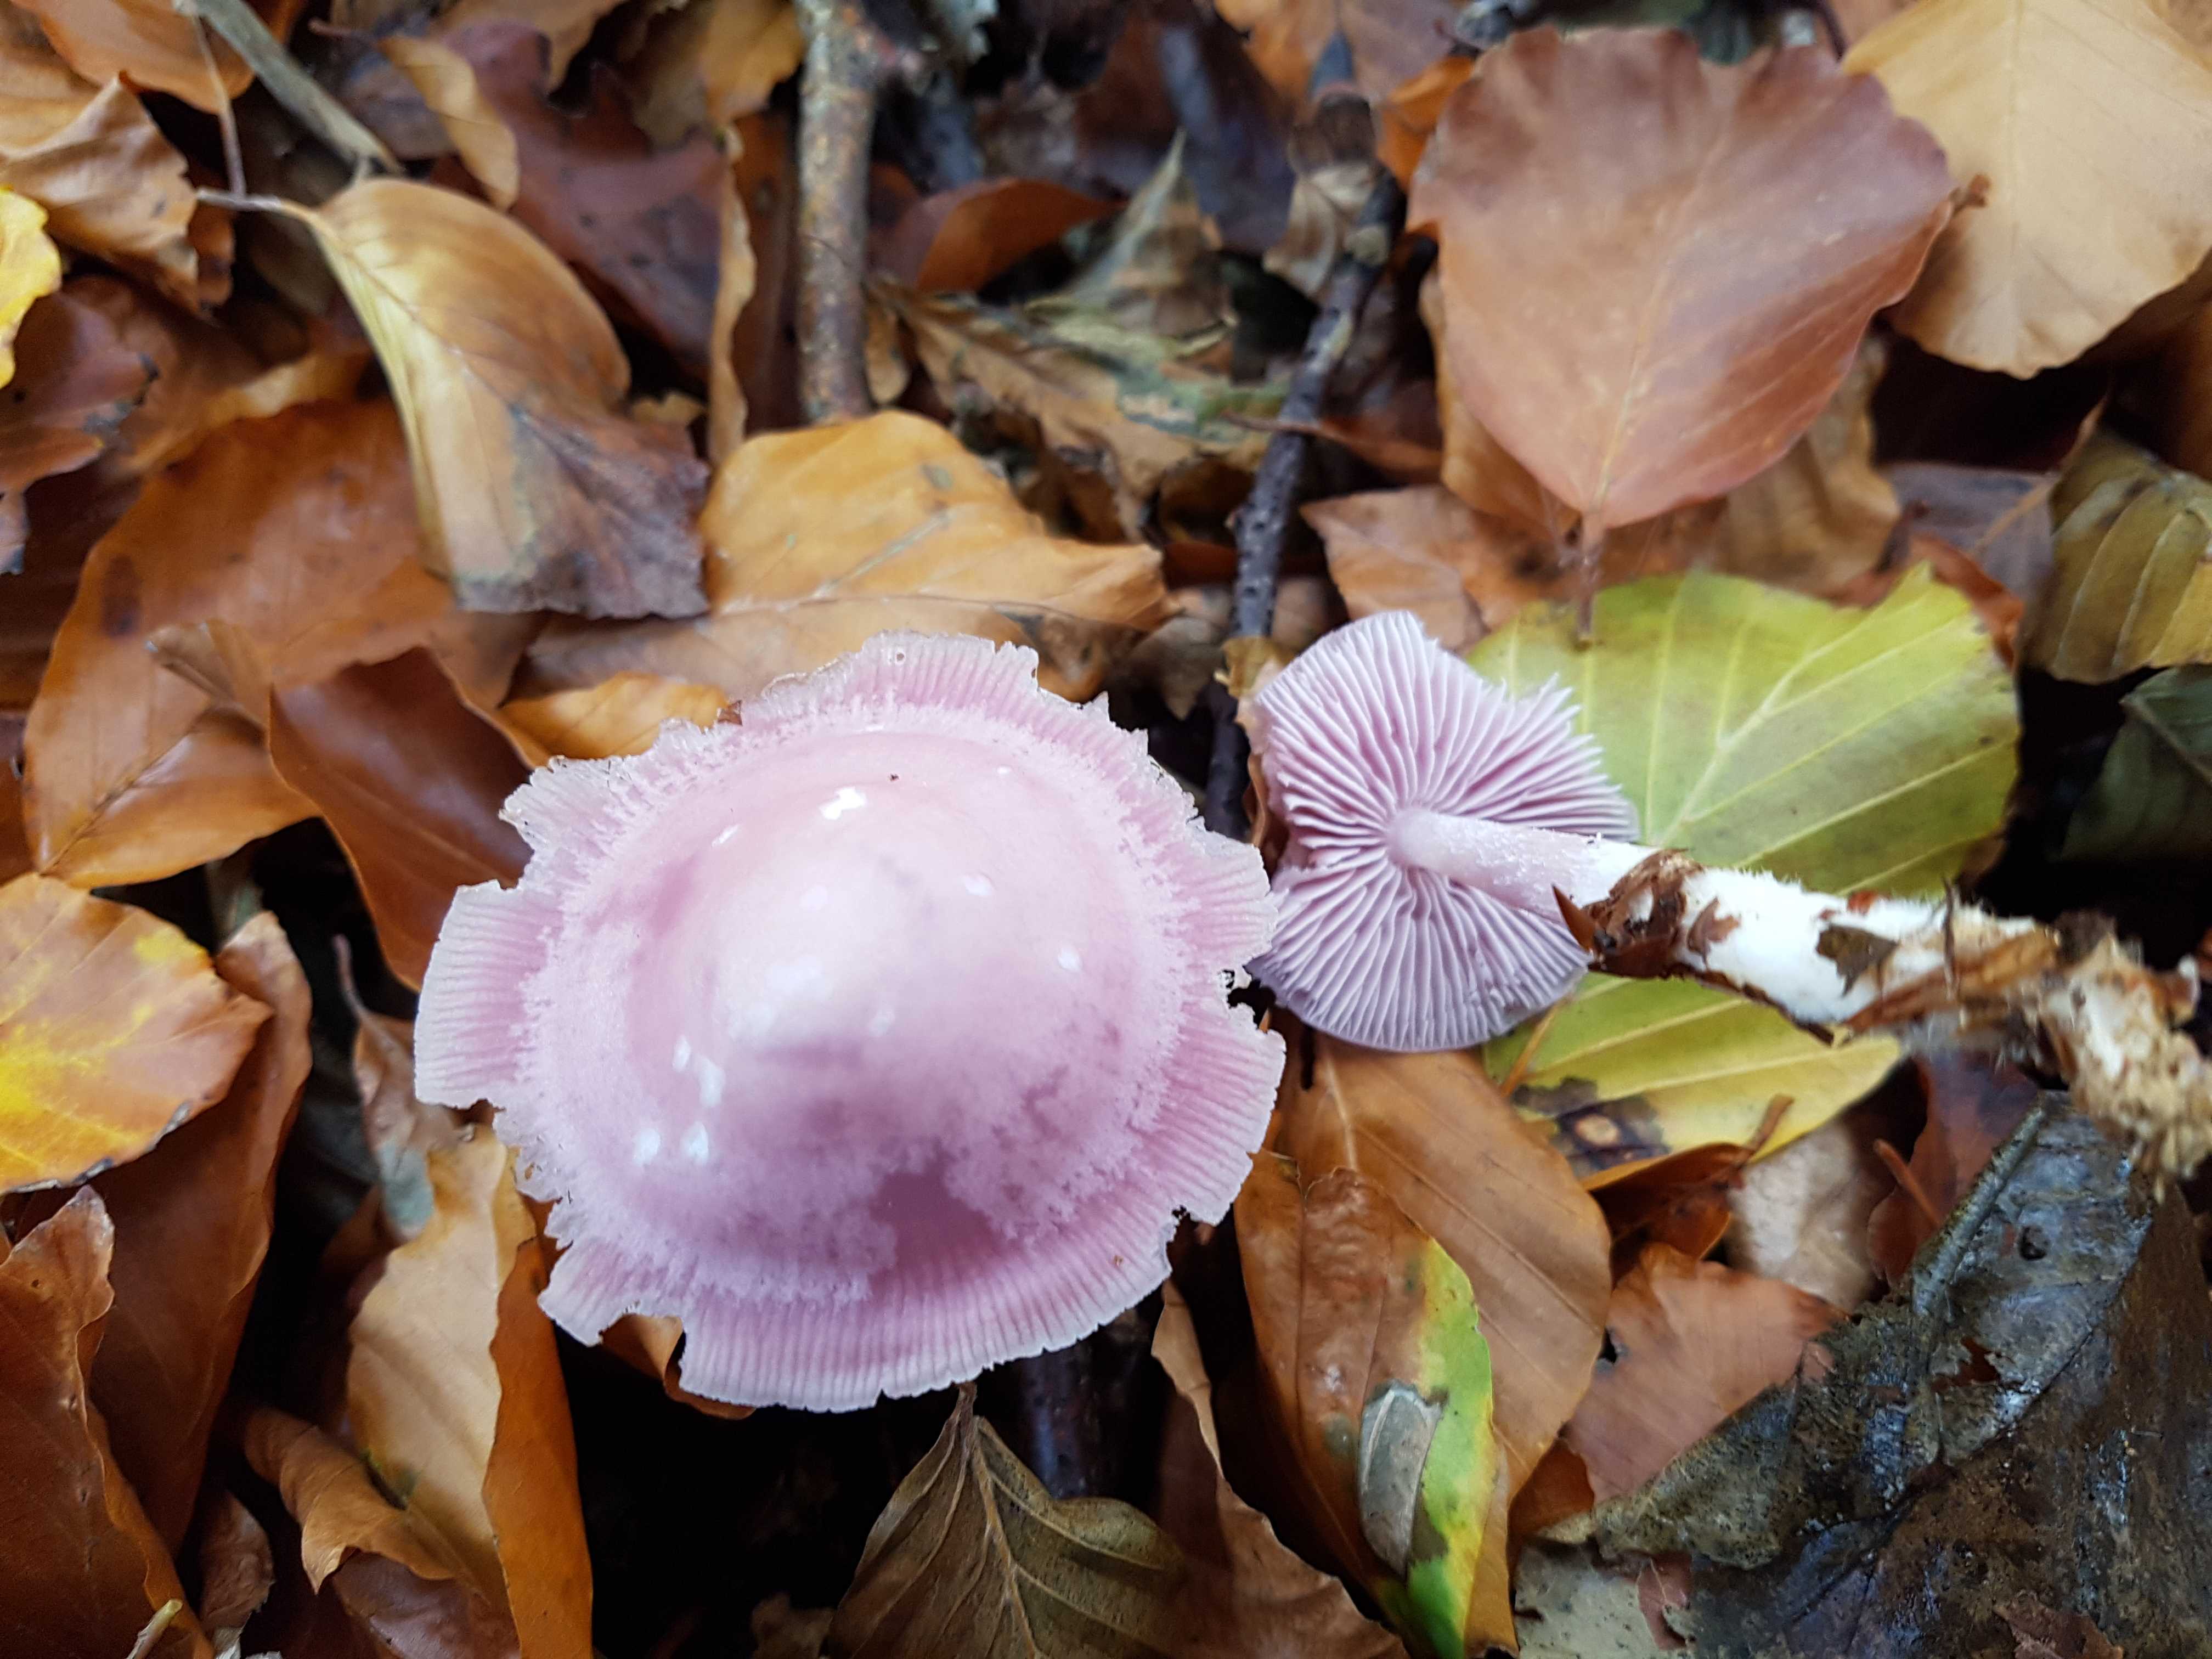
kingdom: Fungi
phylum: Basidiomycota
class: Agaricomycetes
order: Agaricales
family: Mycenaceae
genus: Mycena
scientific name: Mycena rosea
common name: rosa huesvamp
